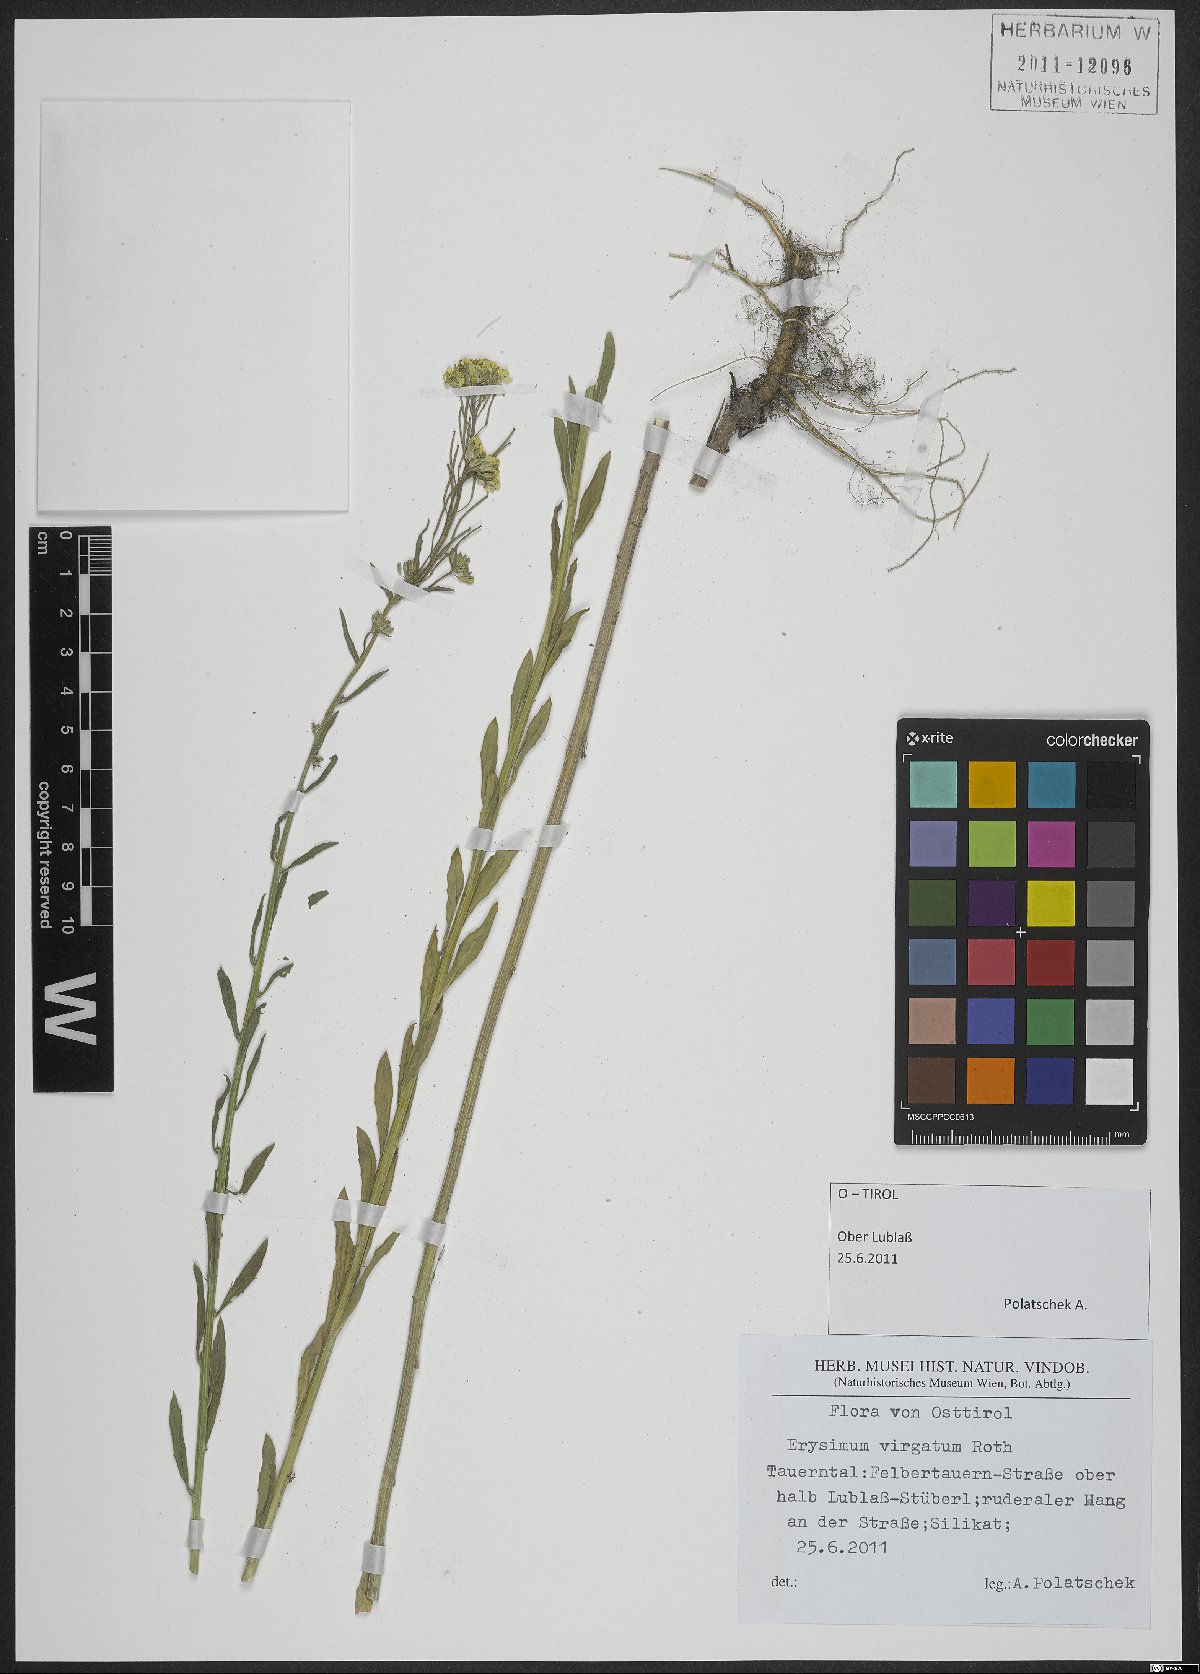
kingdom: Plantae
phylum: Tracheophyta
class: Magnoliopsida
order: Brassicales
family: Brassicaceae
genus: Erysimum
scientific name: Erysimum virgatum
